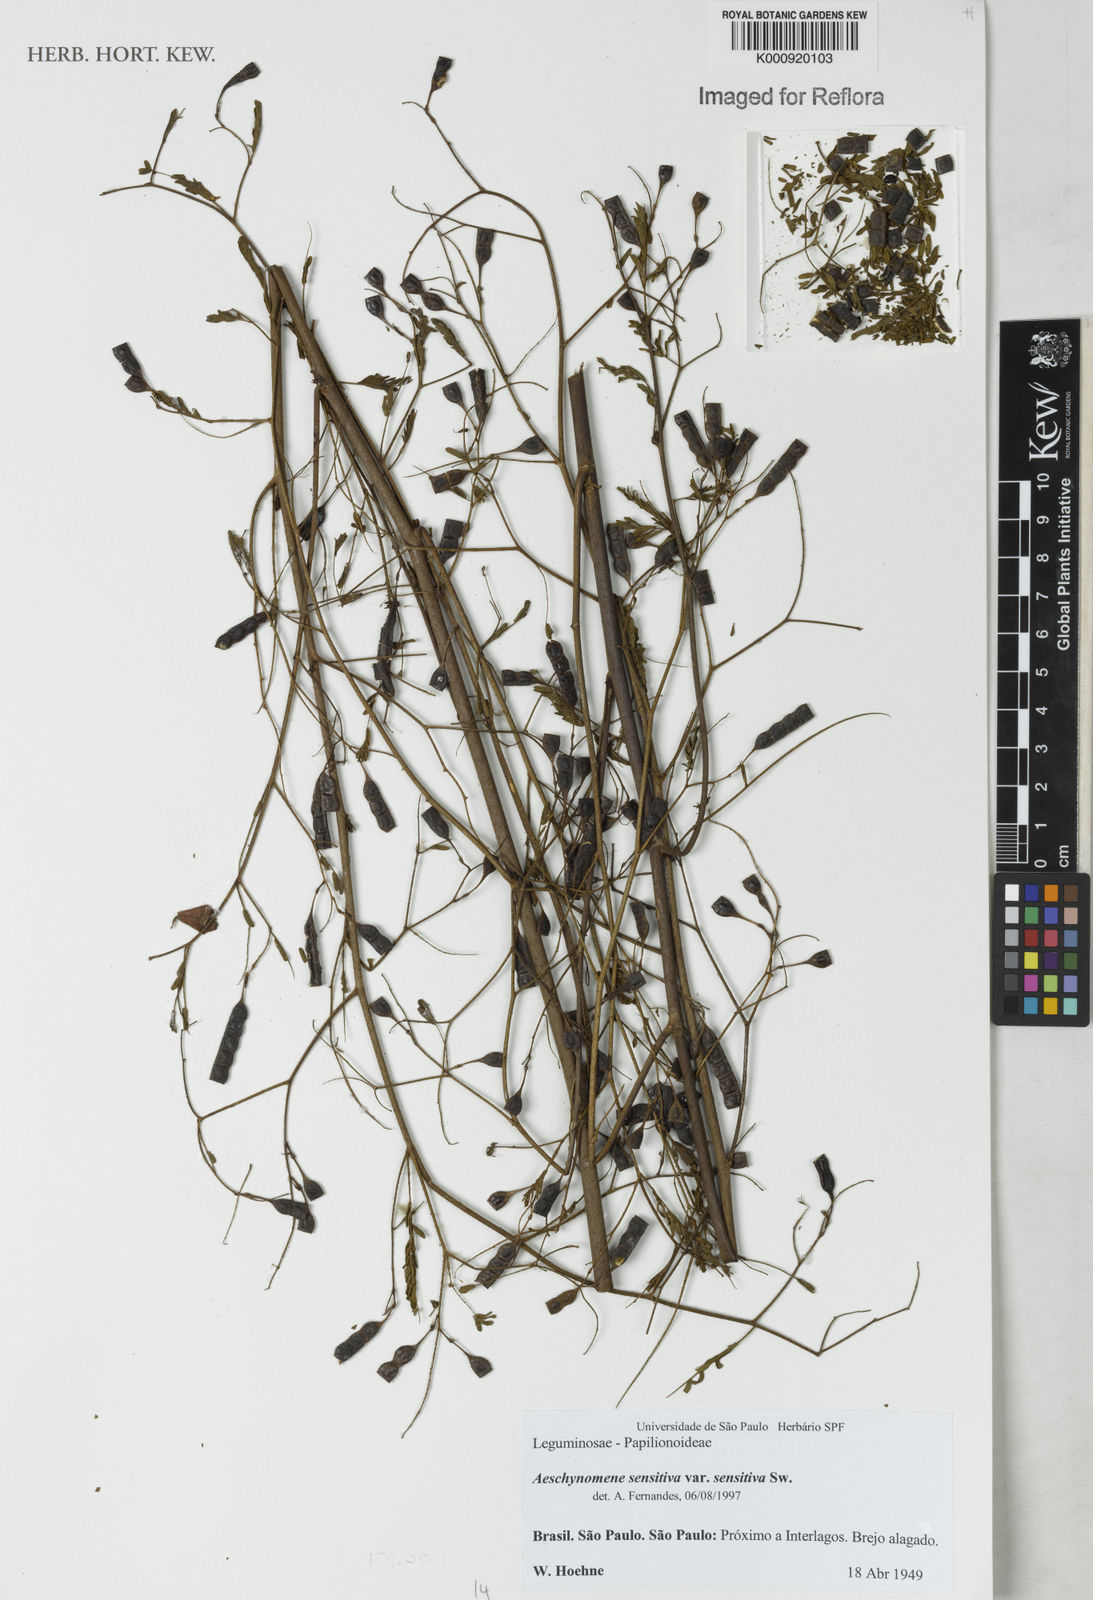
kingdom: Plantae
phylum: Tracheophyta
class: Magnoliopsida
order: Fabales
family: Fabaceae
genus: Aeschynomene
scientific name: Aeschynomene sensitiva
